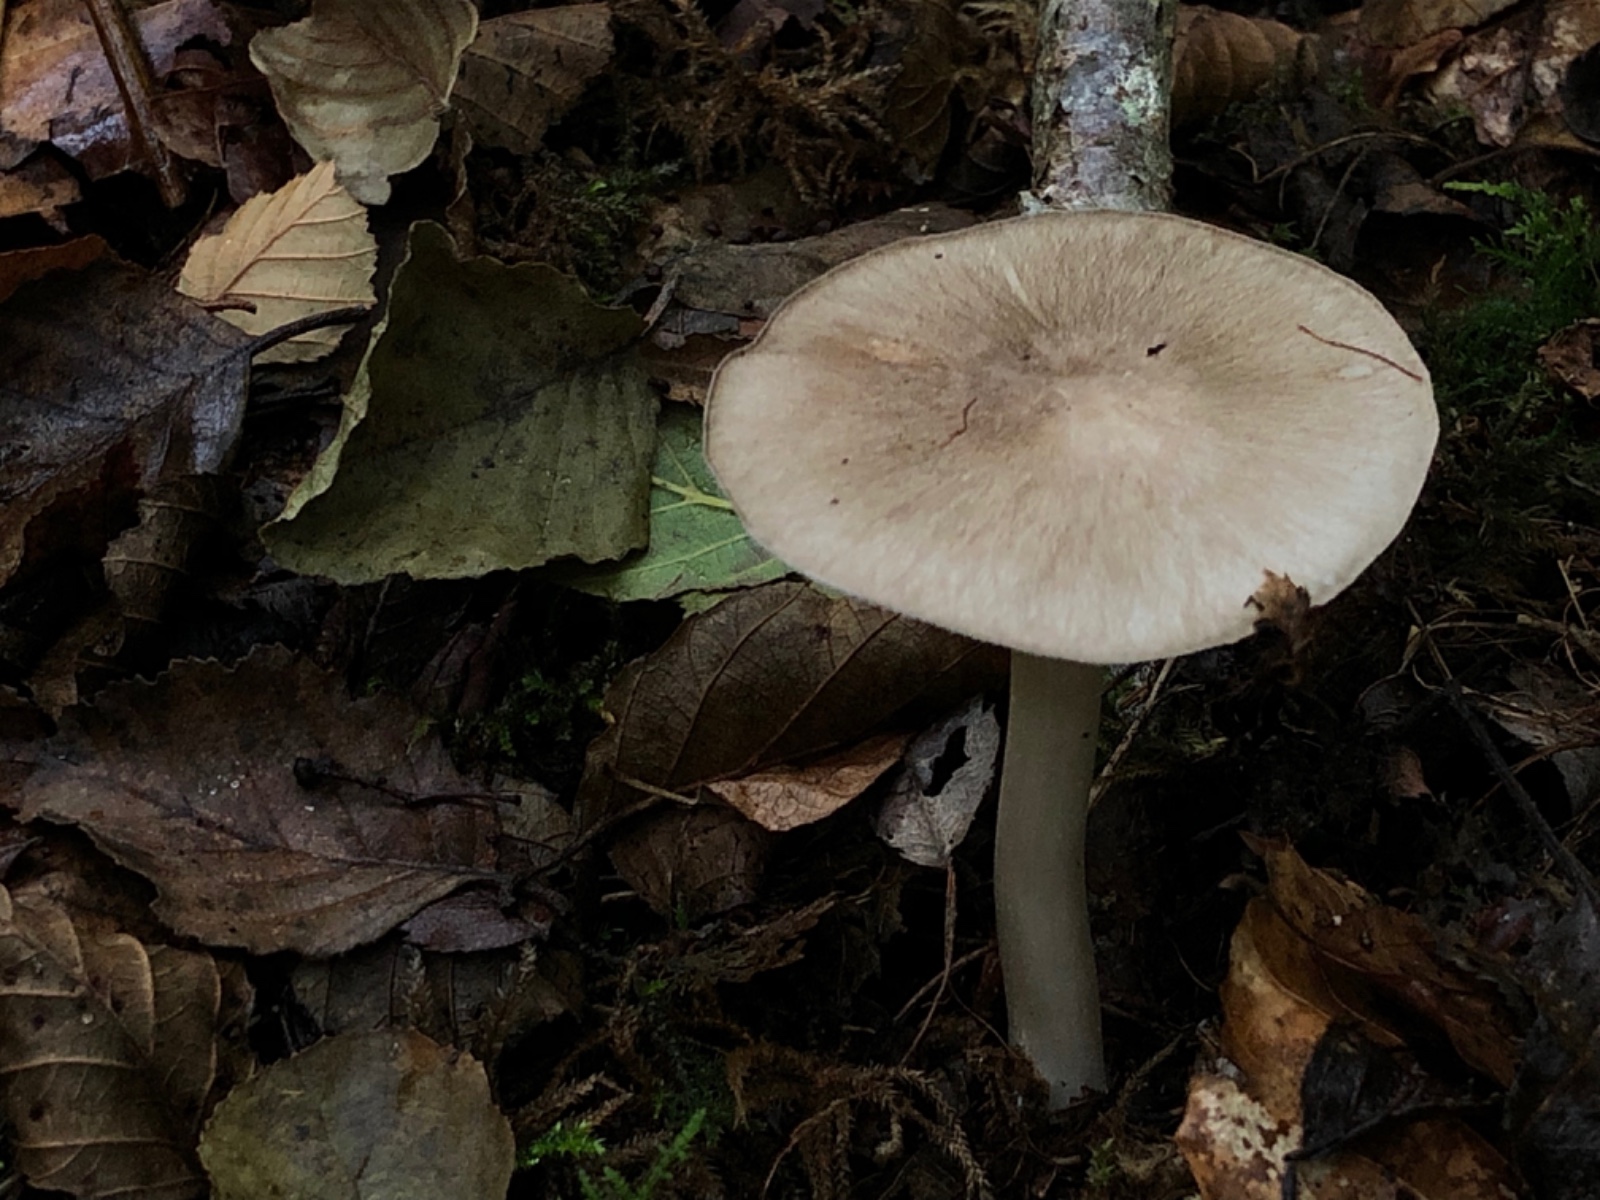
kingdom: Fungi
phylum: Basidiomycota
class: Agaricomycetes
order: Agaricales
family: Tricholomataceae
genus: Megacollybia
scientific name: Megacollybia platyphylla
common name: bredbladet væbnerhat
